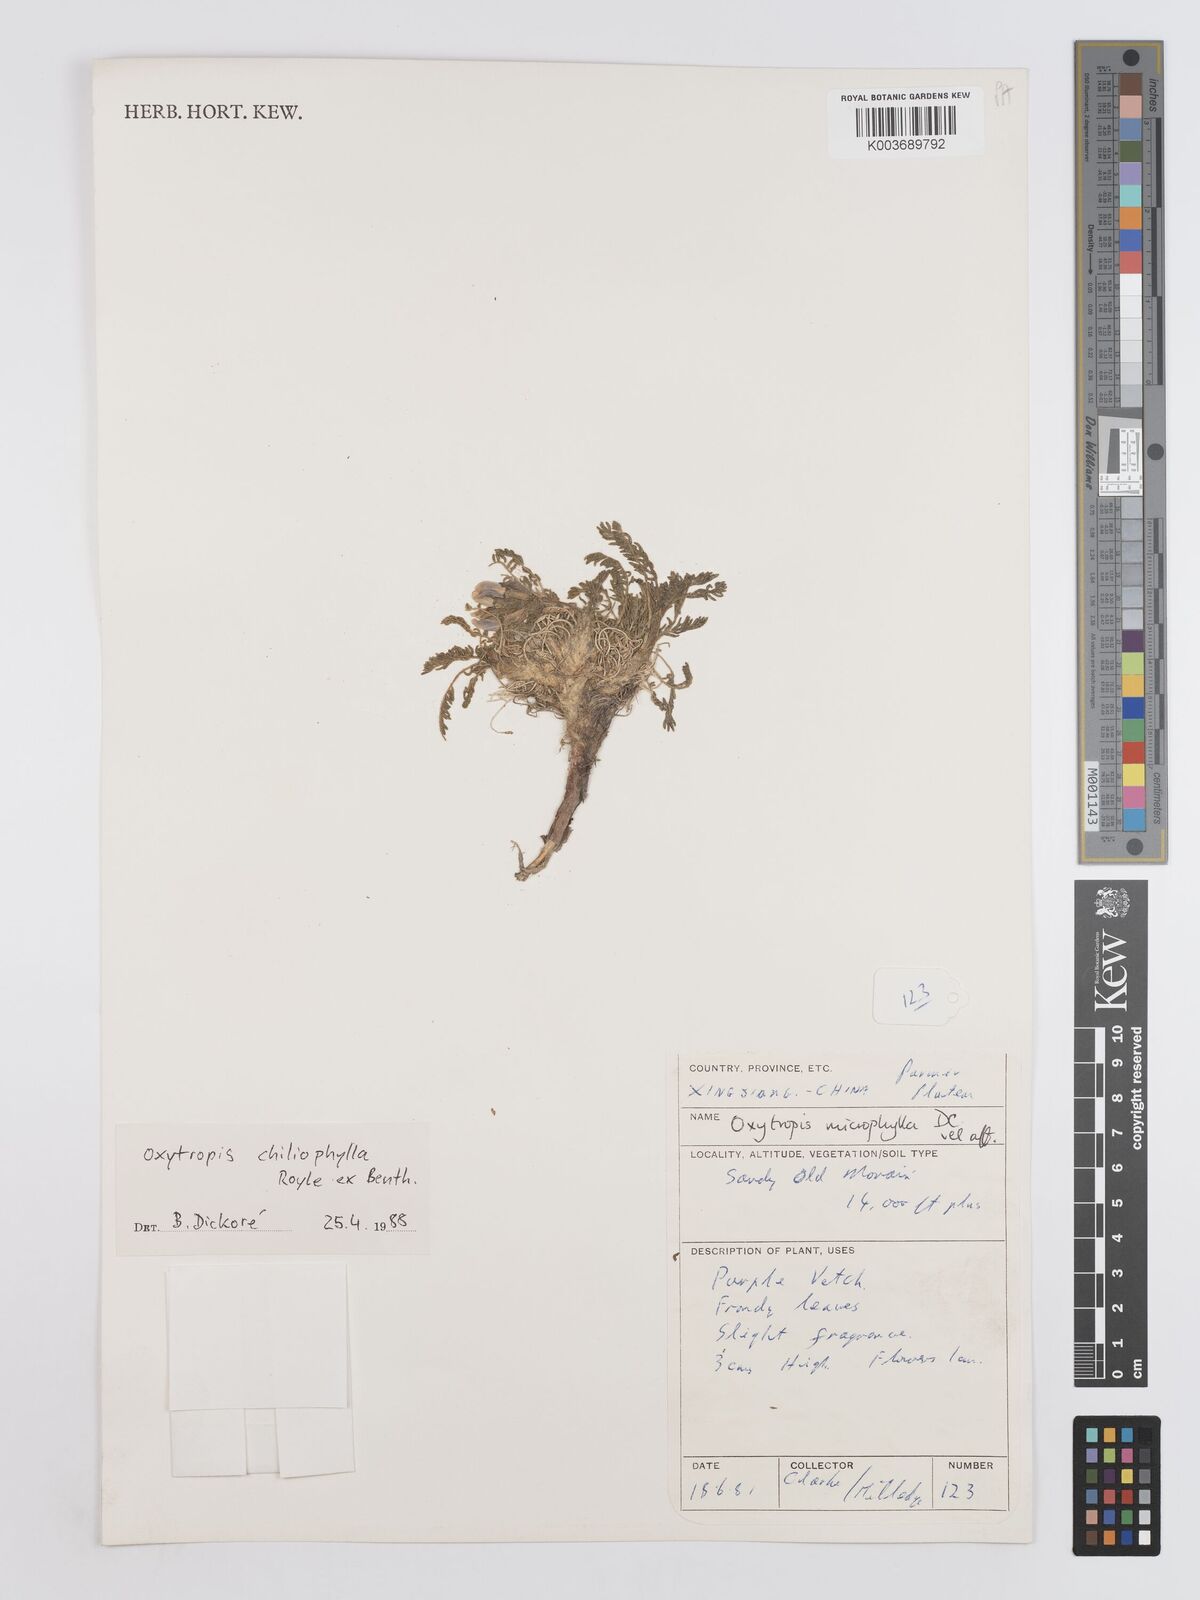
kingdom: Plantae
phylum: Tracheophyta
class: Magnoliopsida
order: Fabales
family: Fabaceae
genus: Oxytropis
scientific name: Oxytropis chiliophylla
